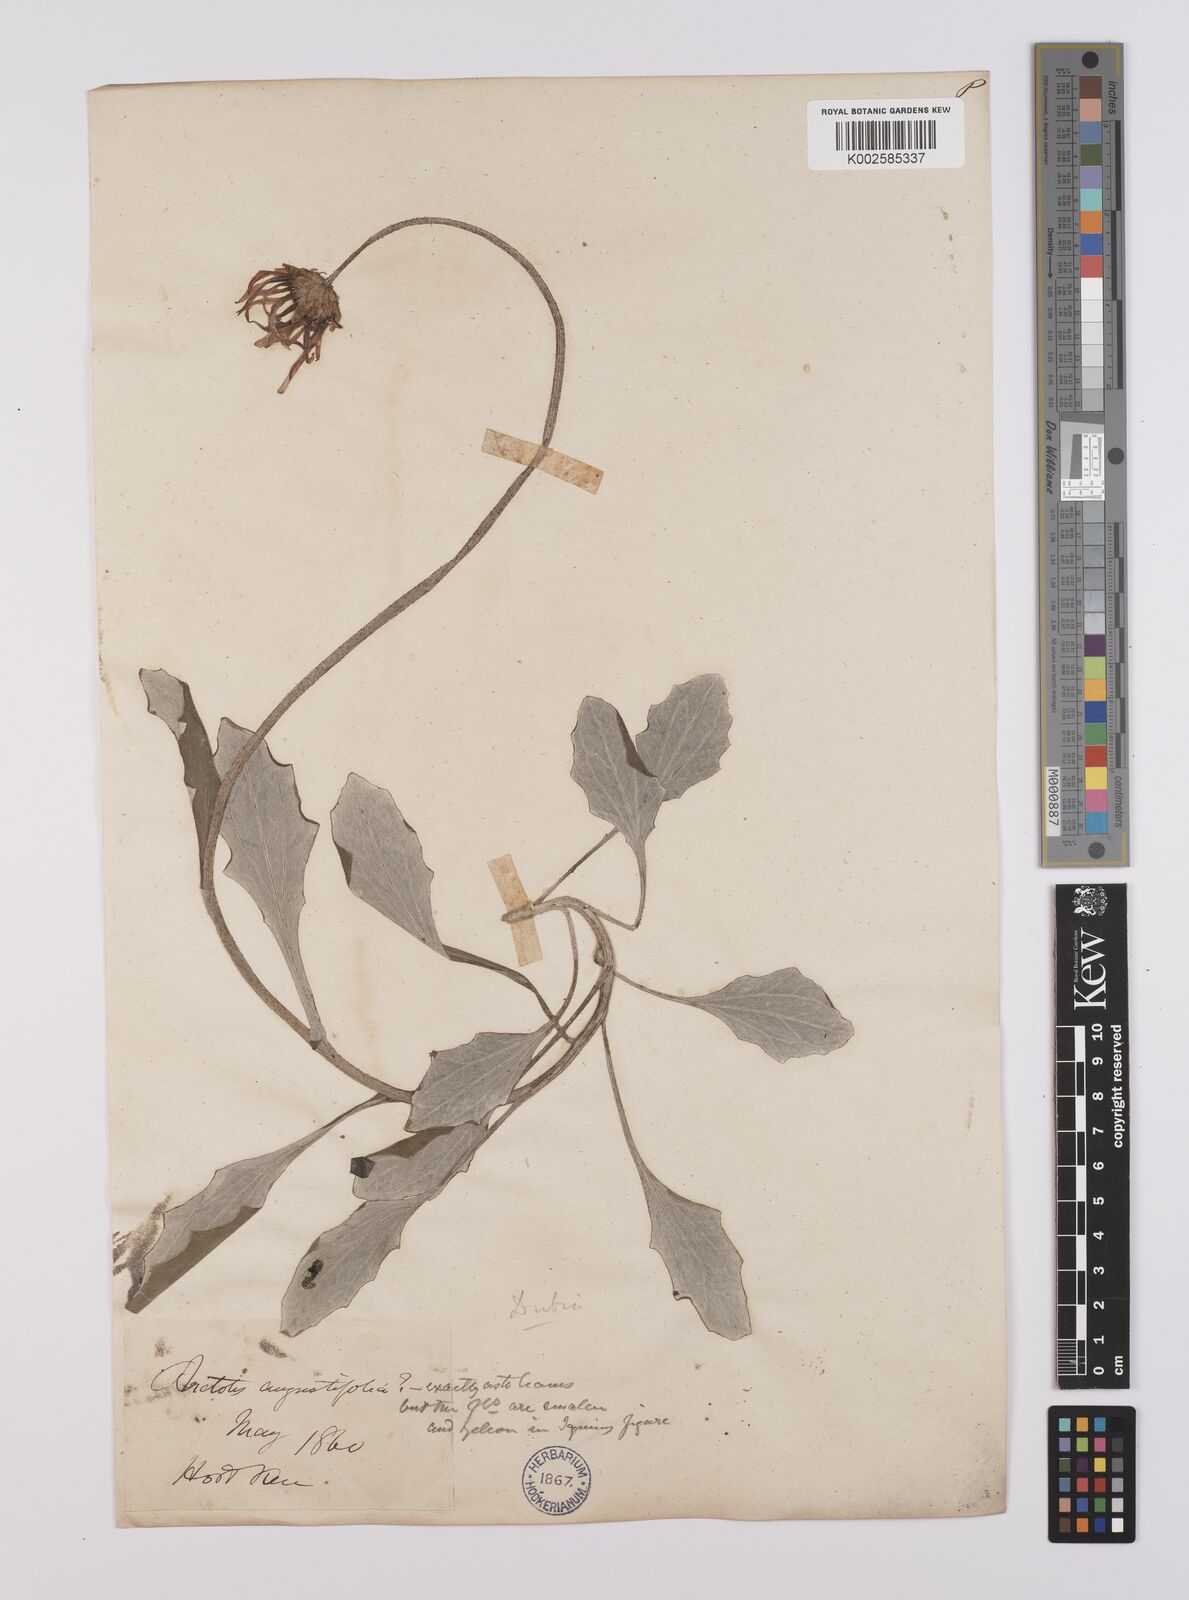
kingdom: Plantae
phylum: Tracheophyta
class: Magnoliopsida
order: Asterales
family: Asteraceae
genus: Arctotis
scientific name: Arctotis rosea
